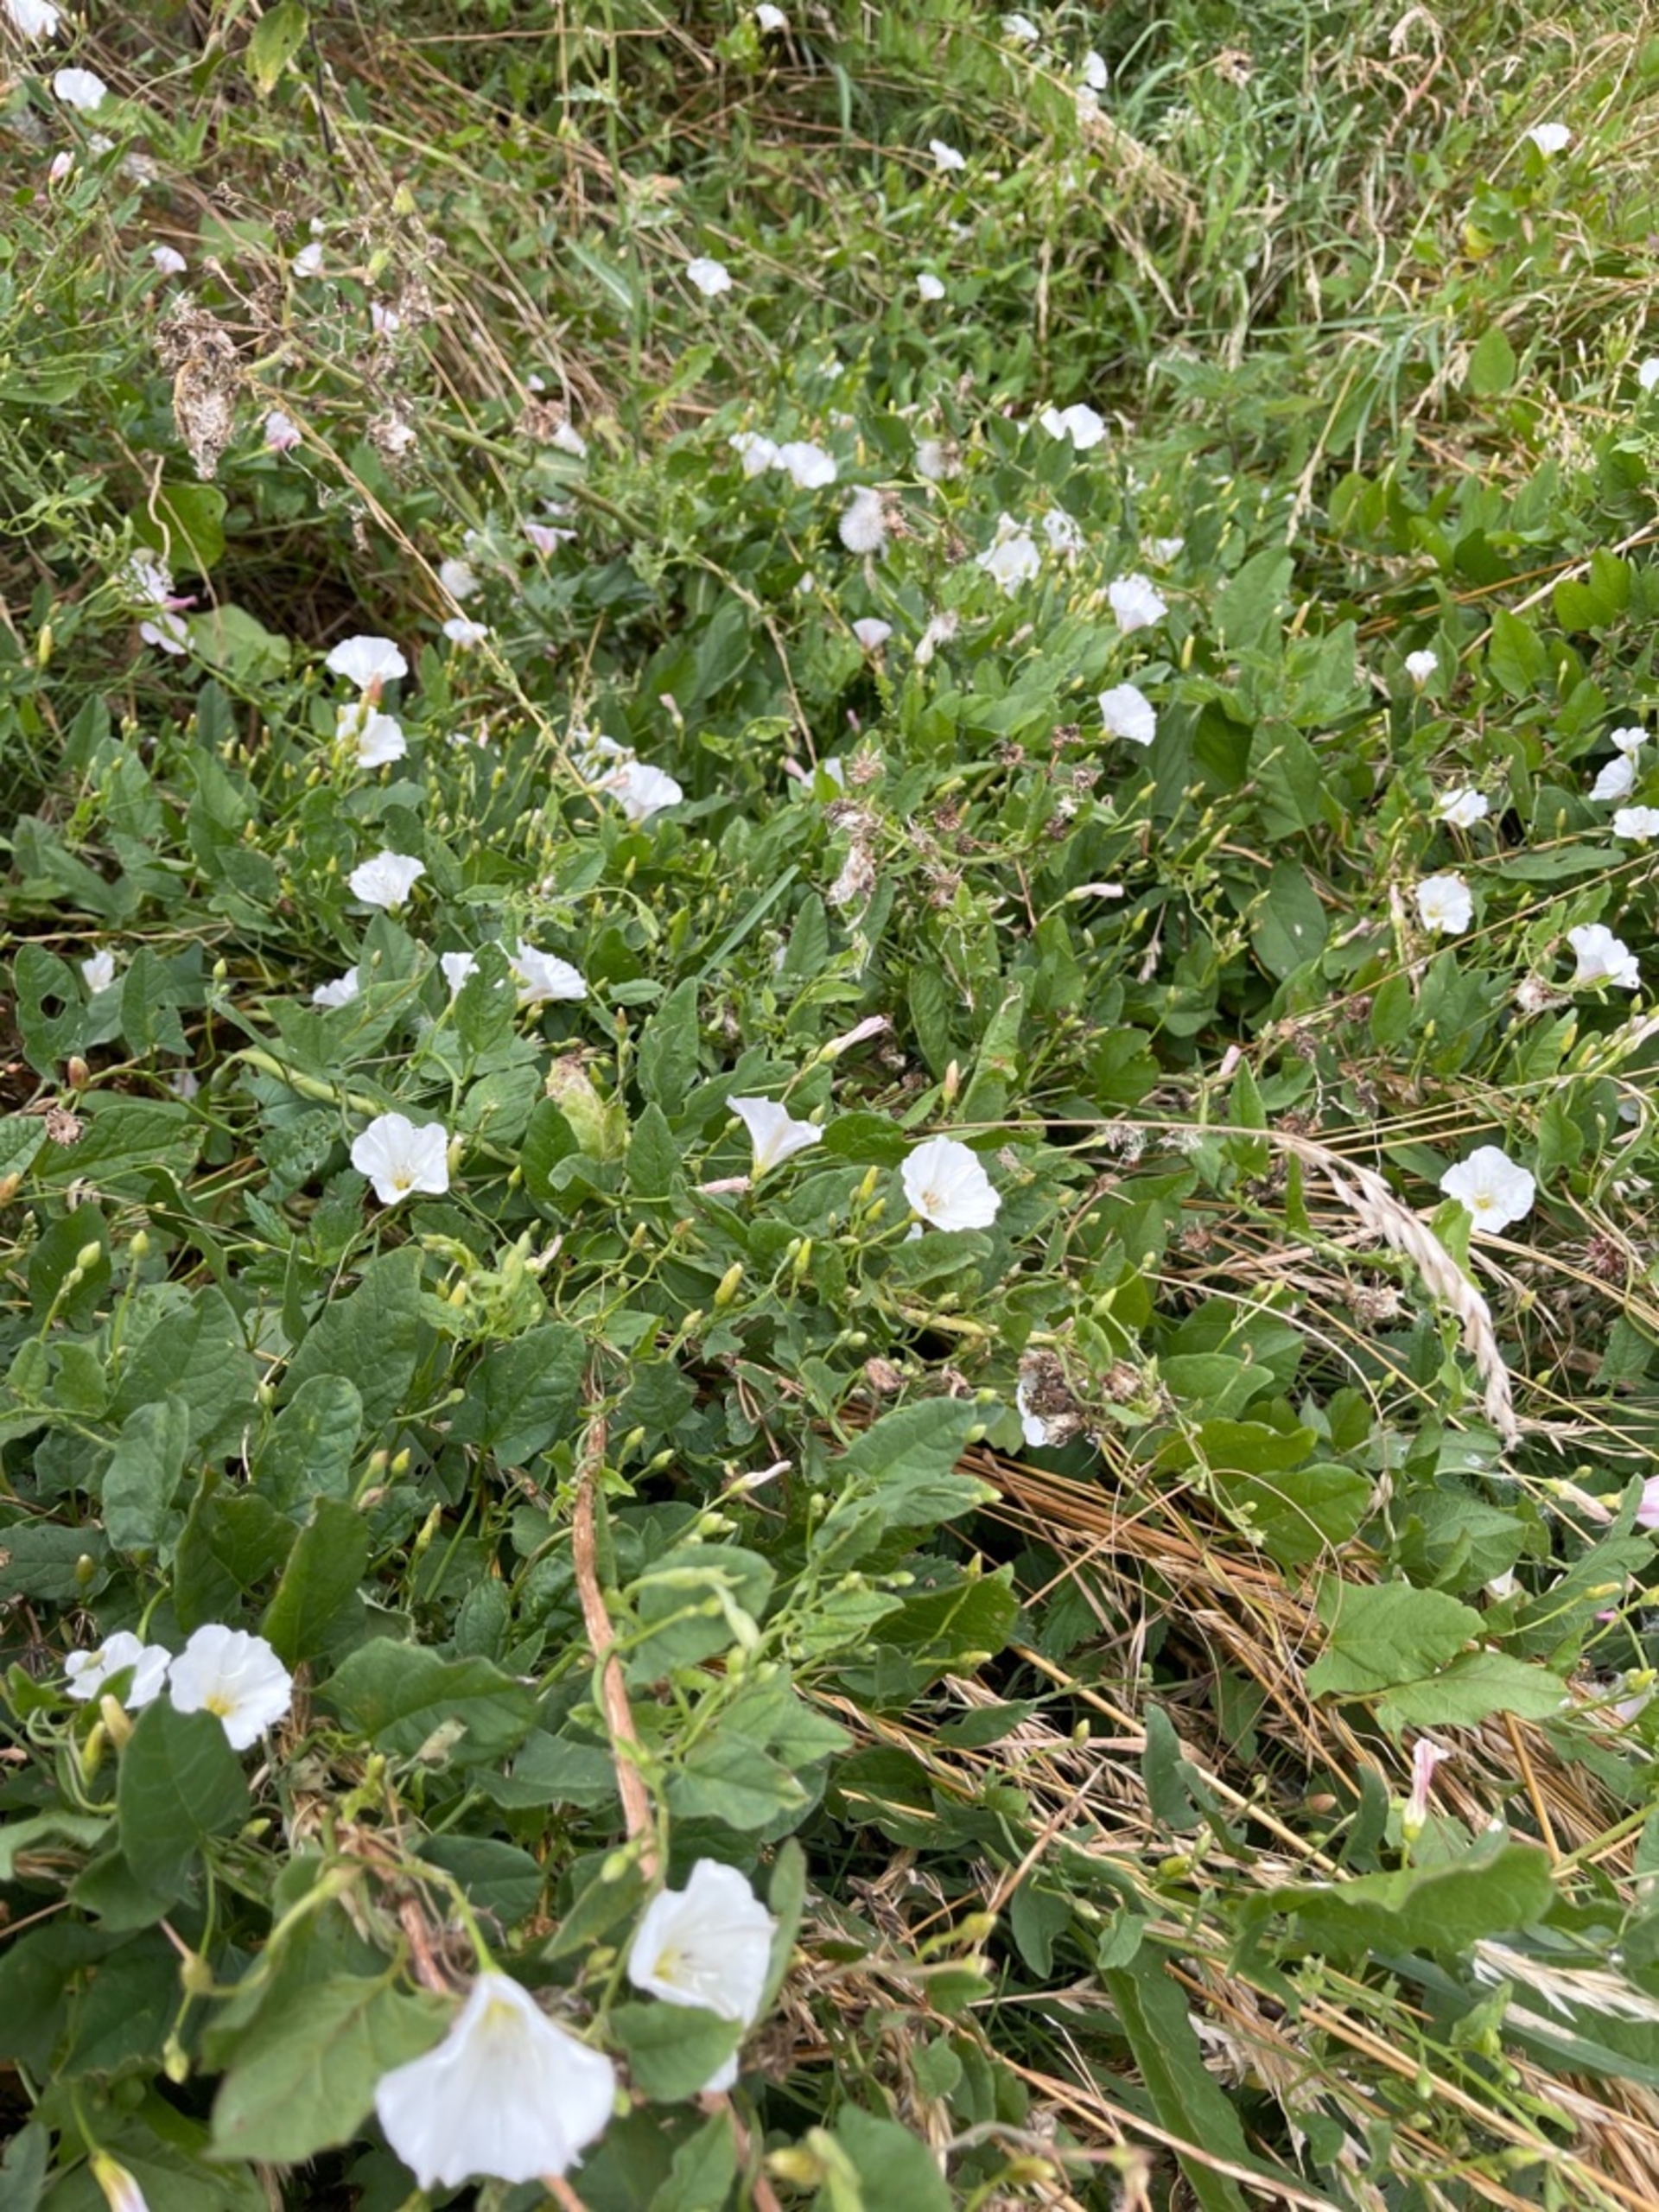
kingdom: Plantae
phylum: Tracheophyta
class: Magnoliopsida
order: Solanales
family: Convolvulaceae
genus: Convolvulus
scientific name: Convolvulus arvensis
